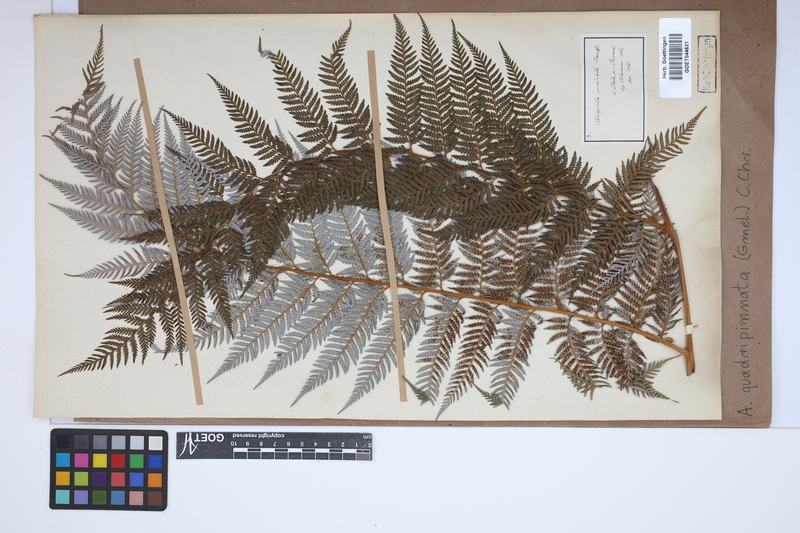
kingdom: Plantae
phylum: Tracheophyta
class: Polypodiopsida
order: Cyatheales
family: Dicksoniaceae
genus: Lophosoria
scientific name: Lophosoria quadripinnata
